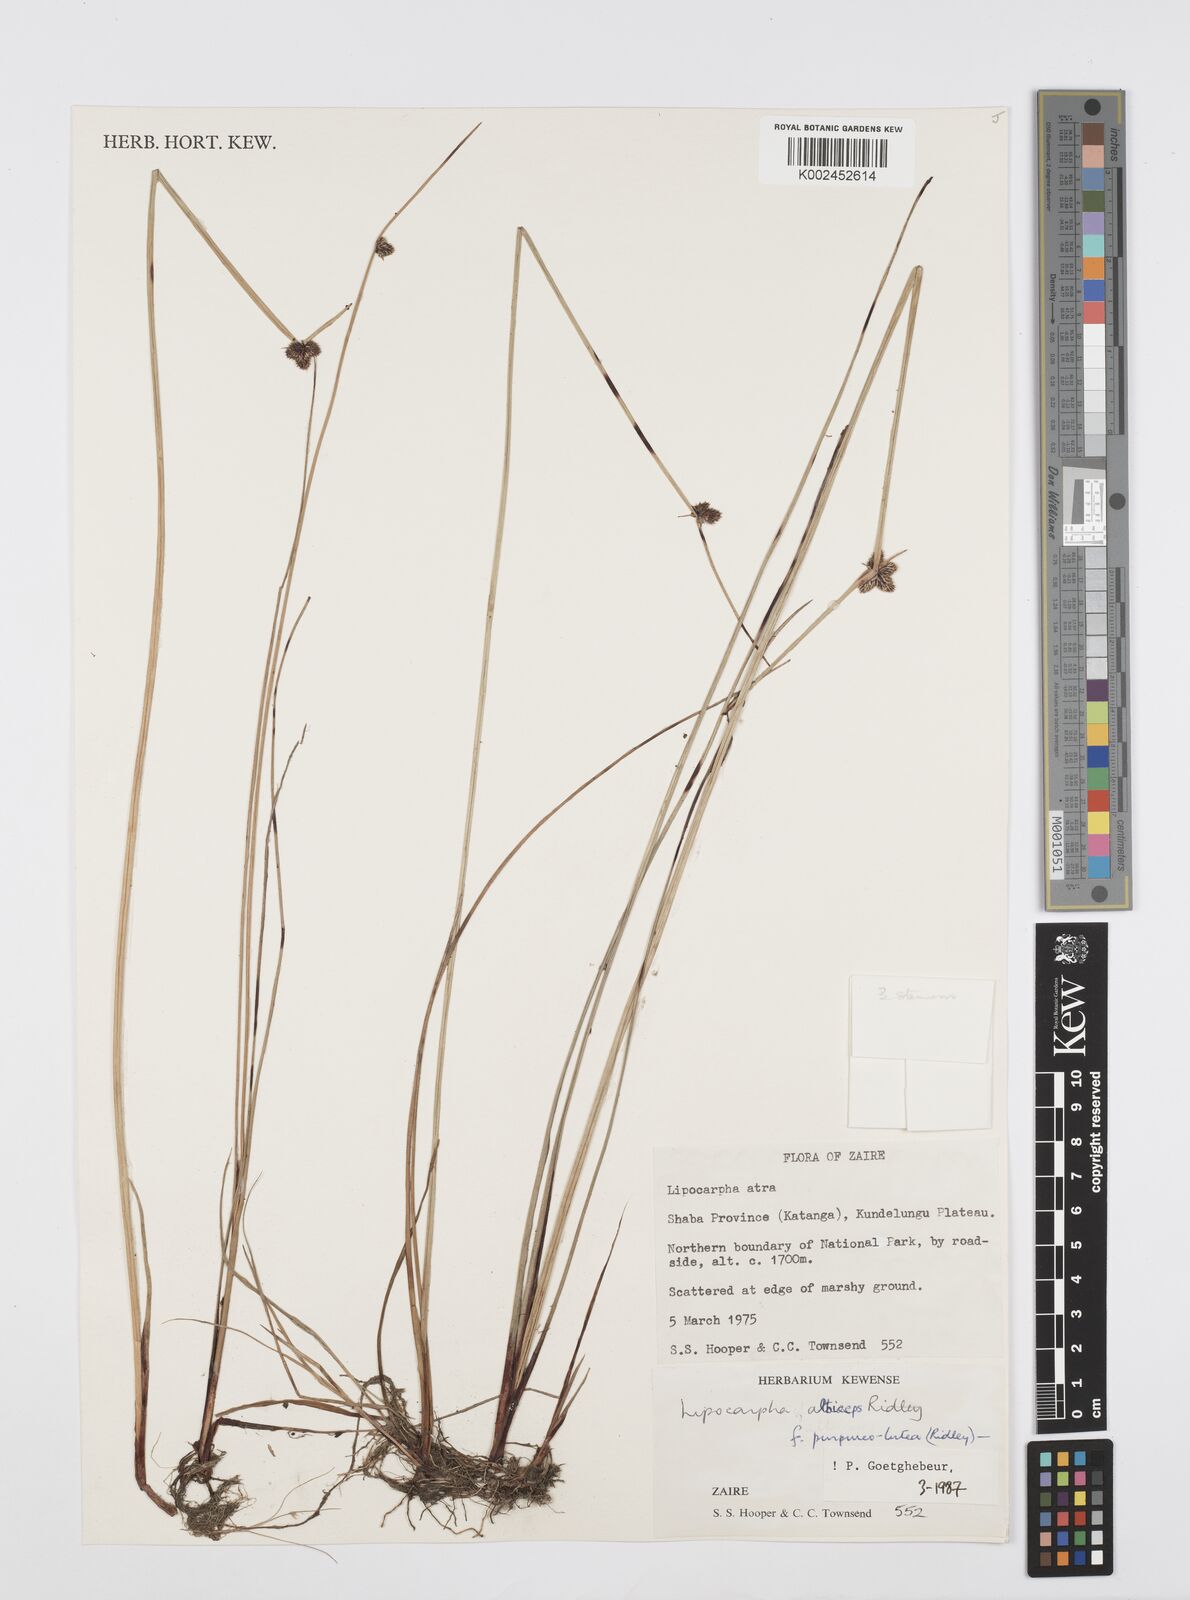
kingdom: Plantae
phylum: Tracheophyta
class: Liliopsida
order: Poales
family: Cyperaceae
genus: Cyperus
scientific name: Cyperus albiceps
